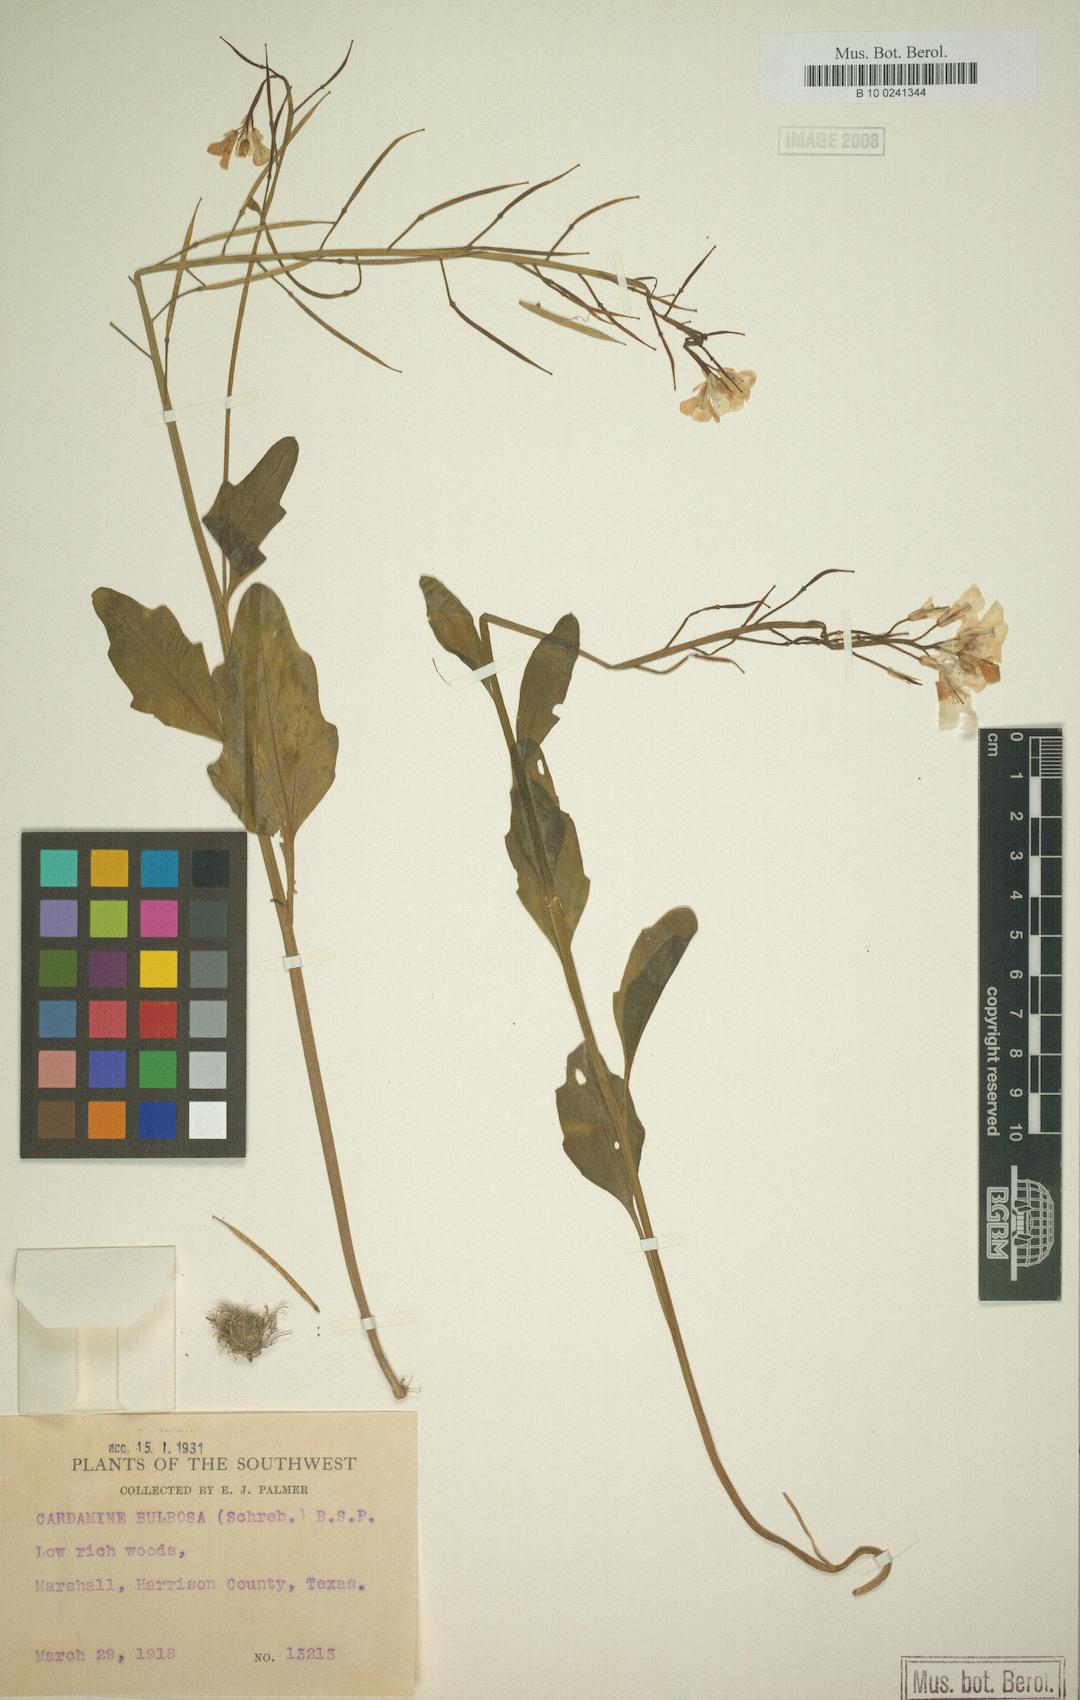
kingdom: Plantae
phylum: Tracheophyta
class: Magnoliopsida
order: Brassicales
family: Brassicaceae
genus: Cardamine
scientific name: Cardamine bulbosa
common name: Spring cress
